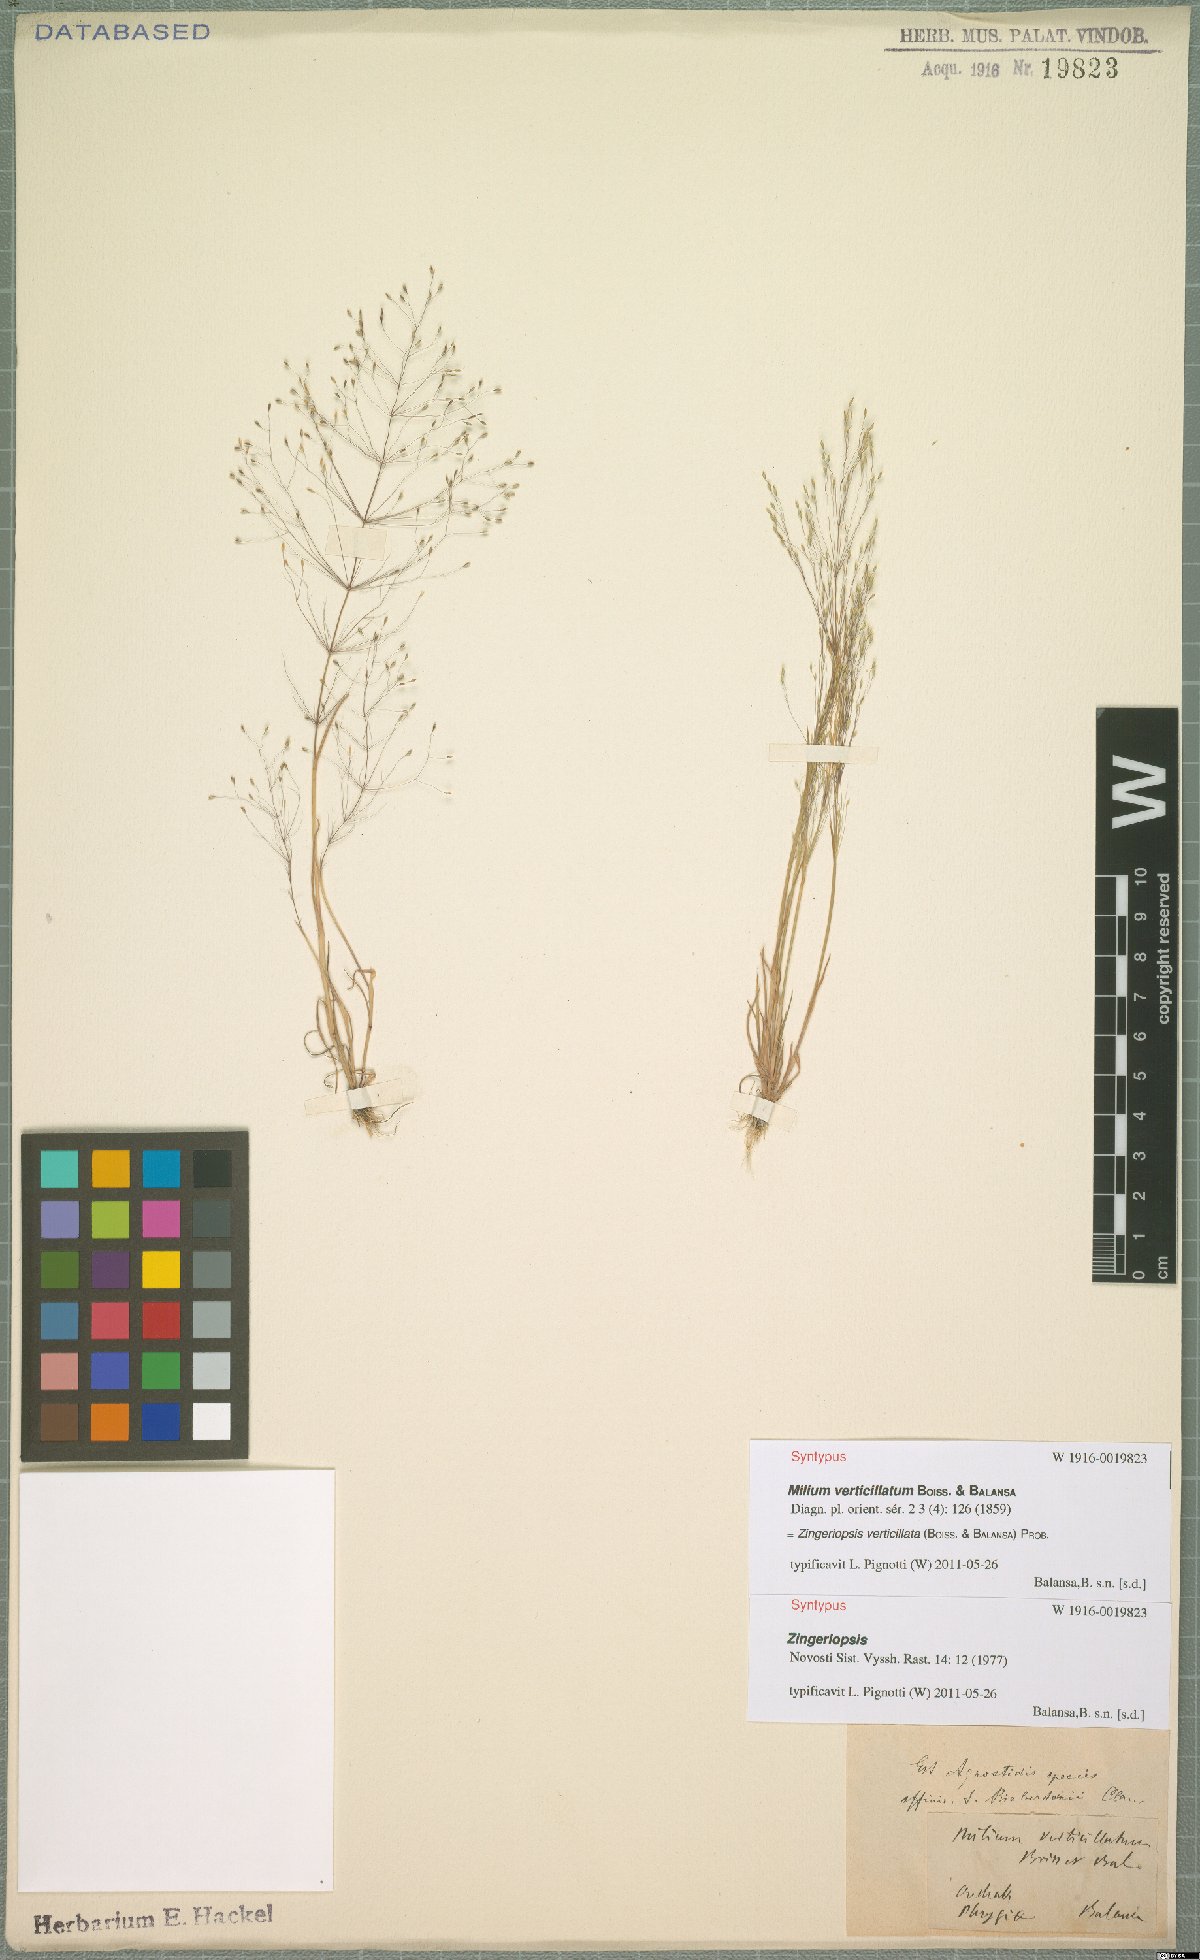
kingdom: Plantae
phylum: Tracheophyta
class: Liliopsida
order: Poales
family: Poaceae
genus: Colpodium
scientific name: Colpodium verticillatum
